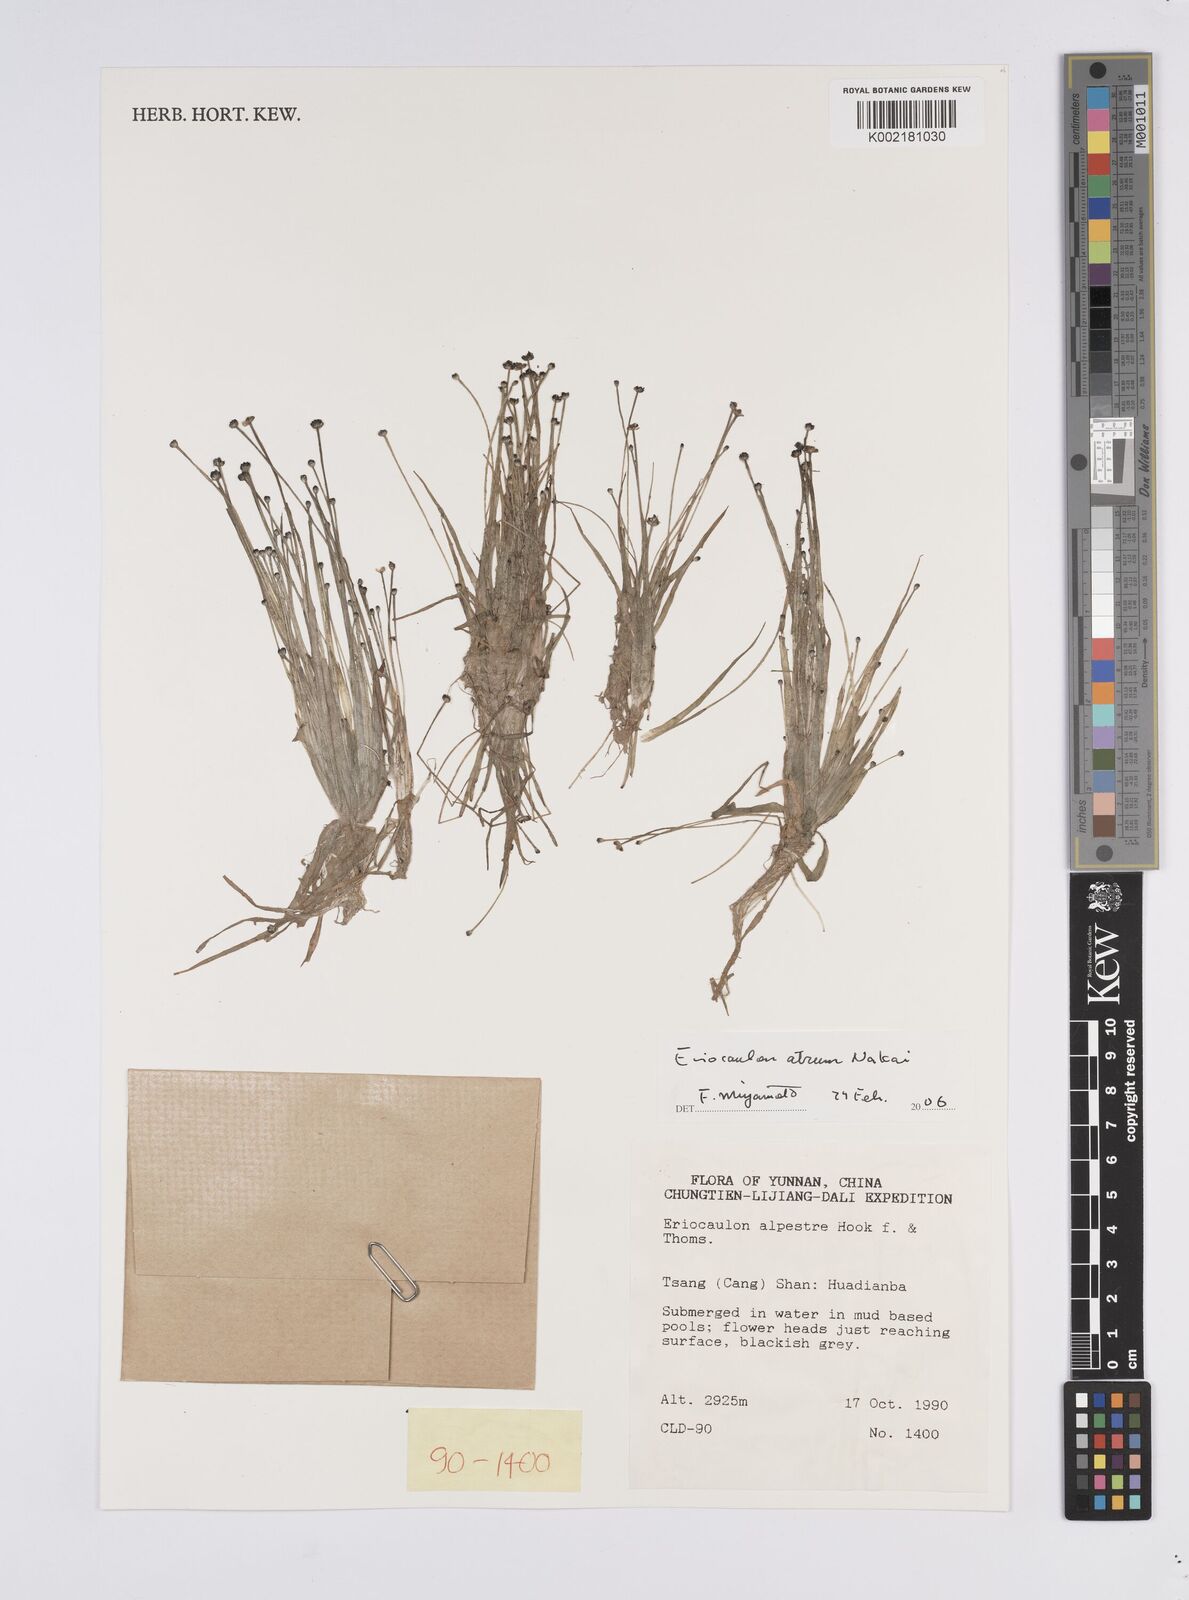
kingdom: Plantae
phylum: Tracheophyta
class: Liliopsida
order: Poales
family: Eriocaulaceae
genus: Eriocaulon
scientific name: Eriocaulon alpestre
